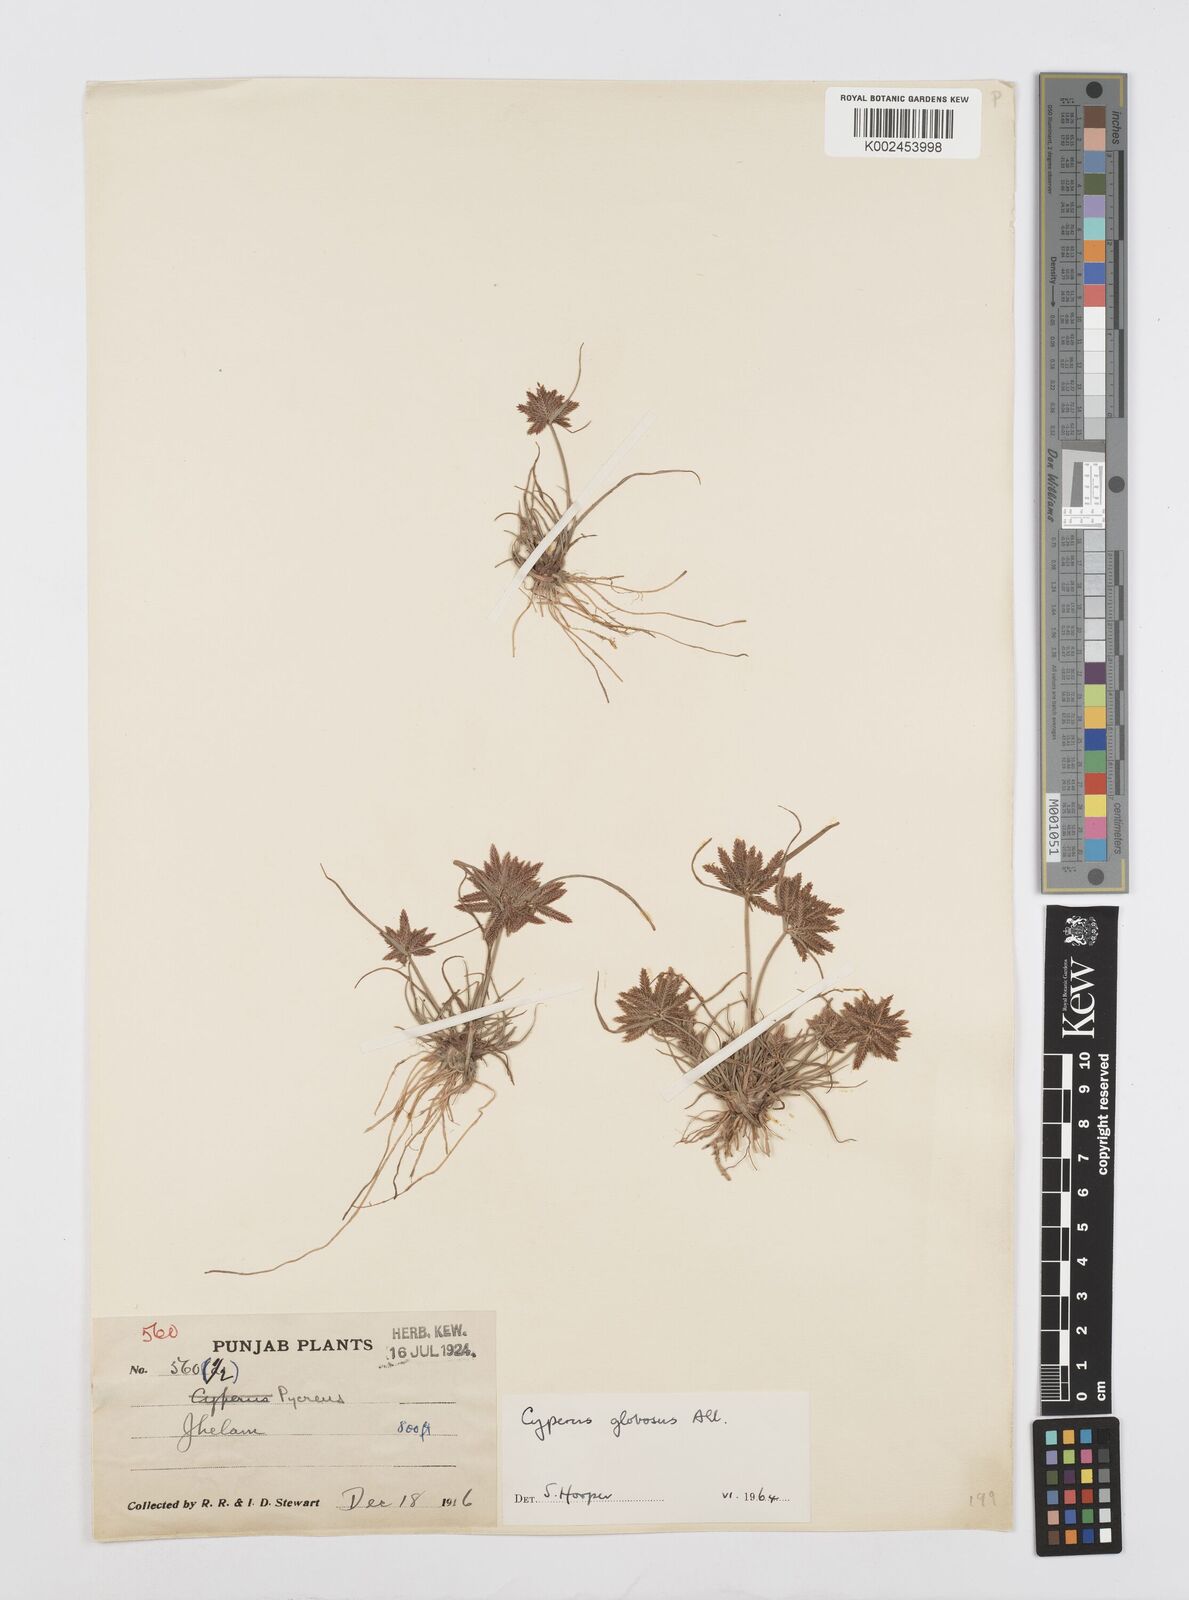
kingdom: Plantae
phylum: Tracheophyta
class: Liliopsida
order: Poales
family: Cyperaceae
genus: Cyperus
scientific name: Cyperus flavidus
